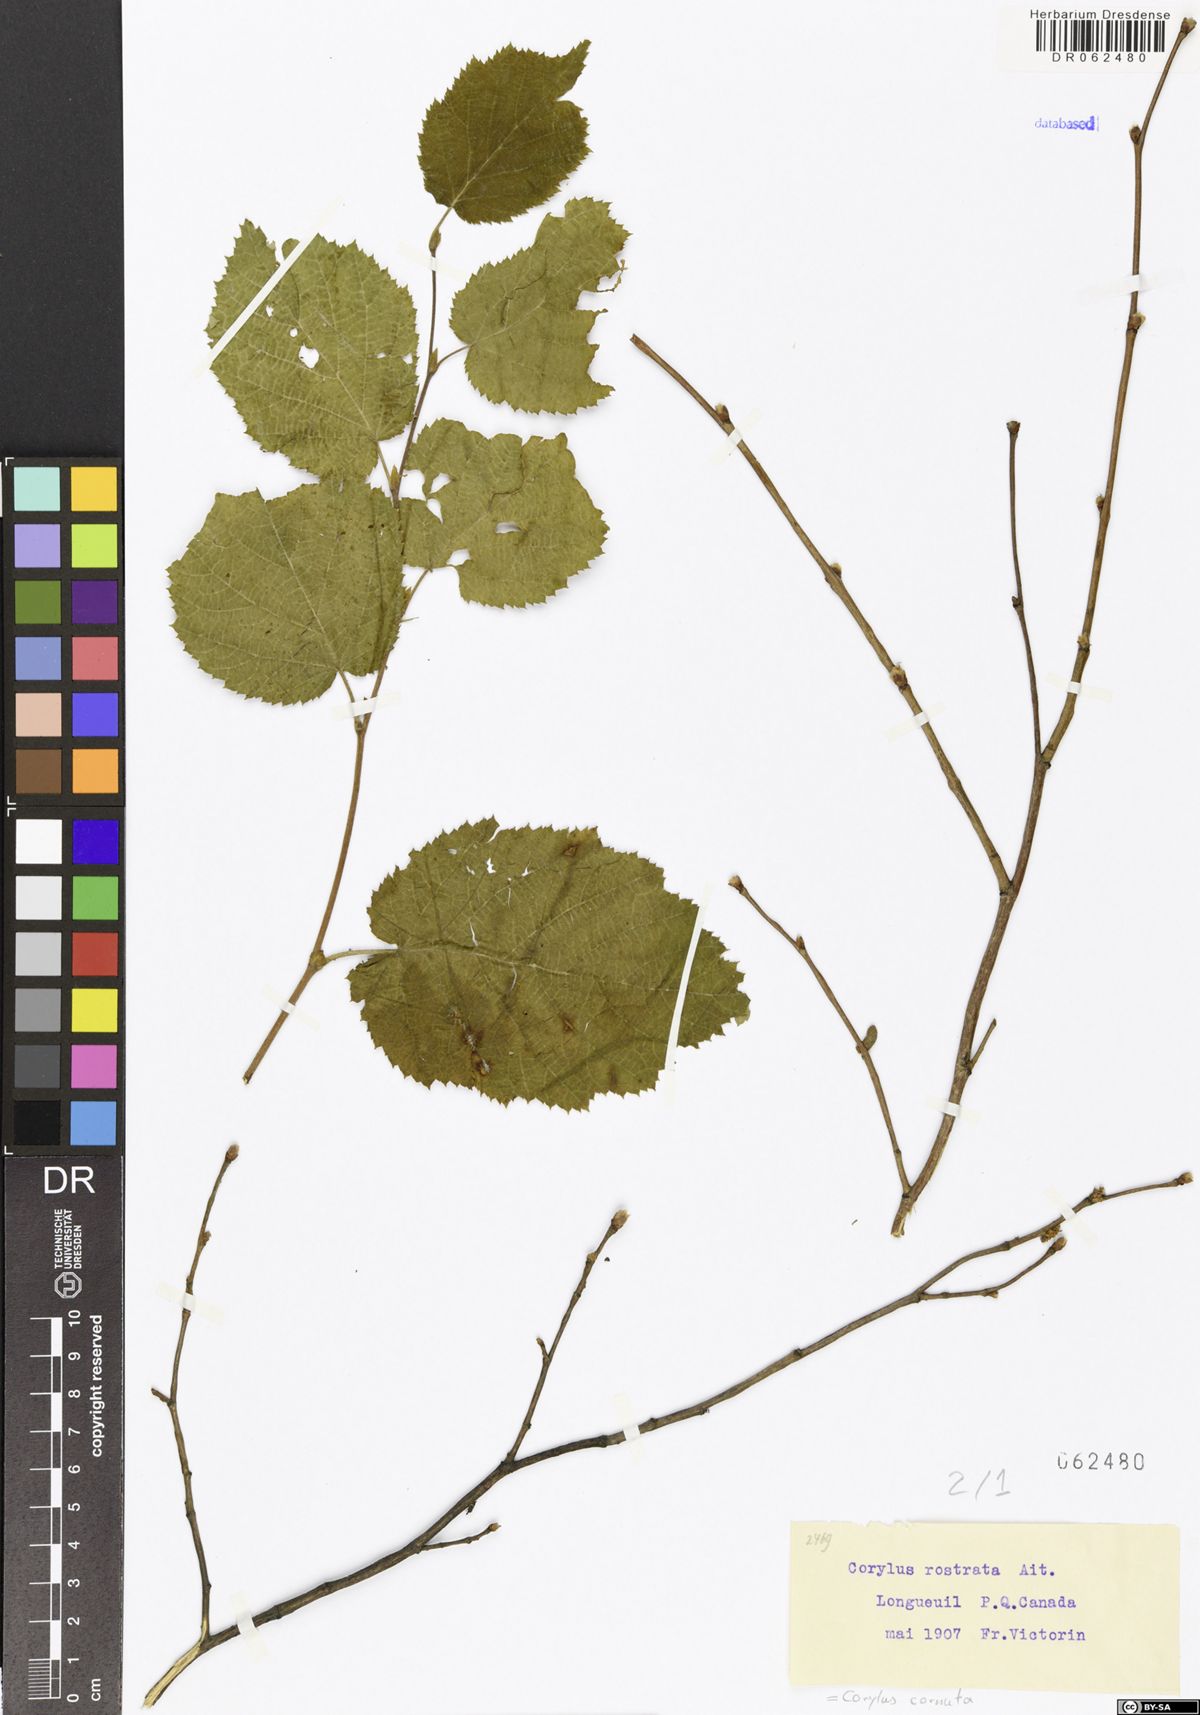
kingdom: Plantae
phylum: Tracheophyta
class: Magnoliopsida
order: Fagales
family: Betulaceae
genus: Corylus
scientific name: Corylus cornuta
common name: Beaked hazel
